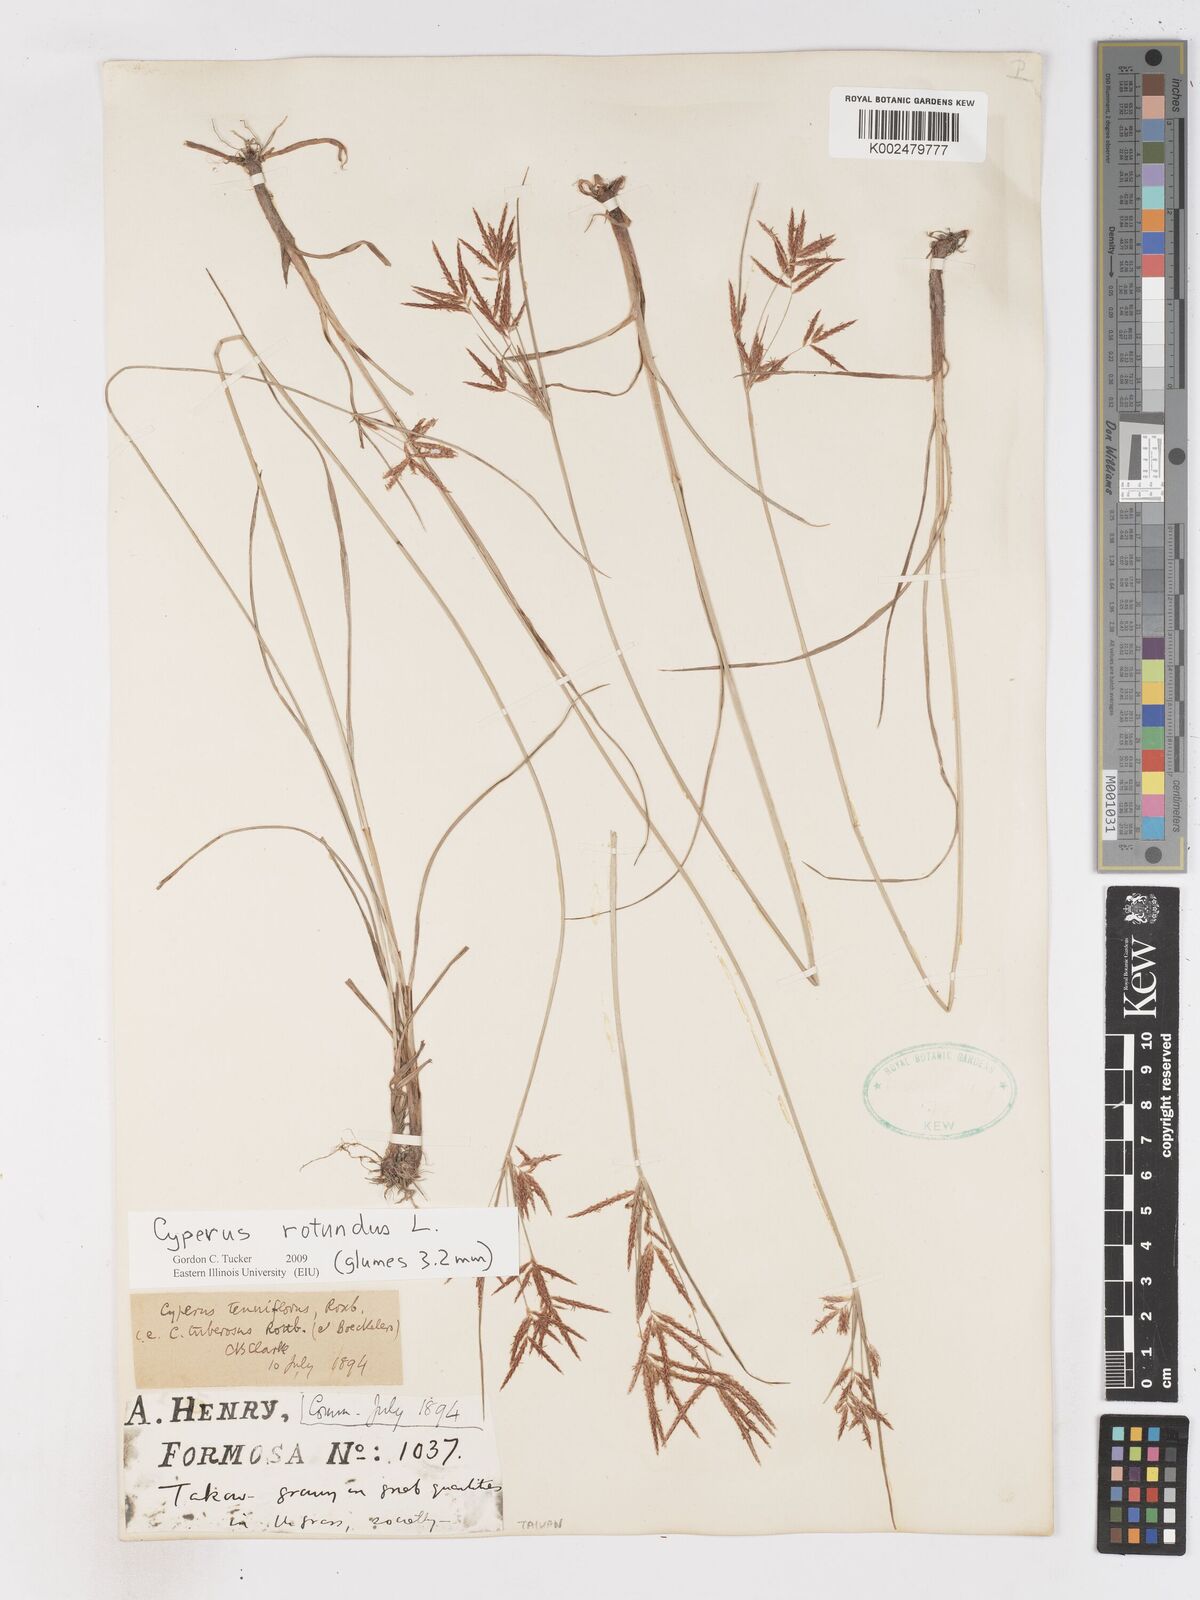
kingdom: Plantae
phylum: Tracheophyta
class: Liliopsida
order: Poales
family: Cyperaceae
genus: Cyperus
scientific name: Cyperus rotundus
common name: Nutgrass
